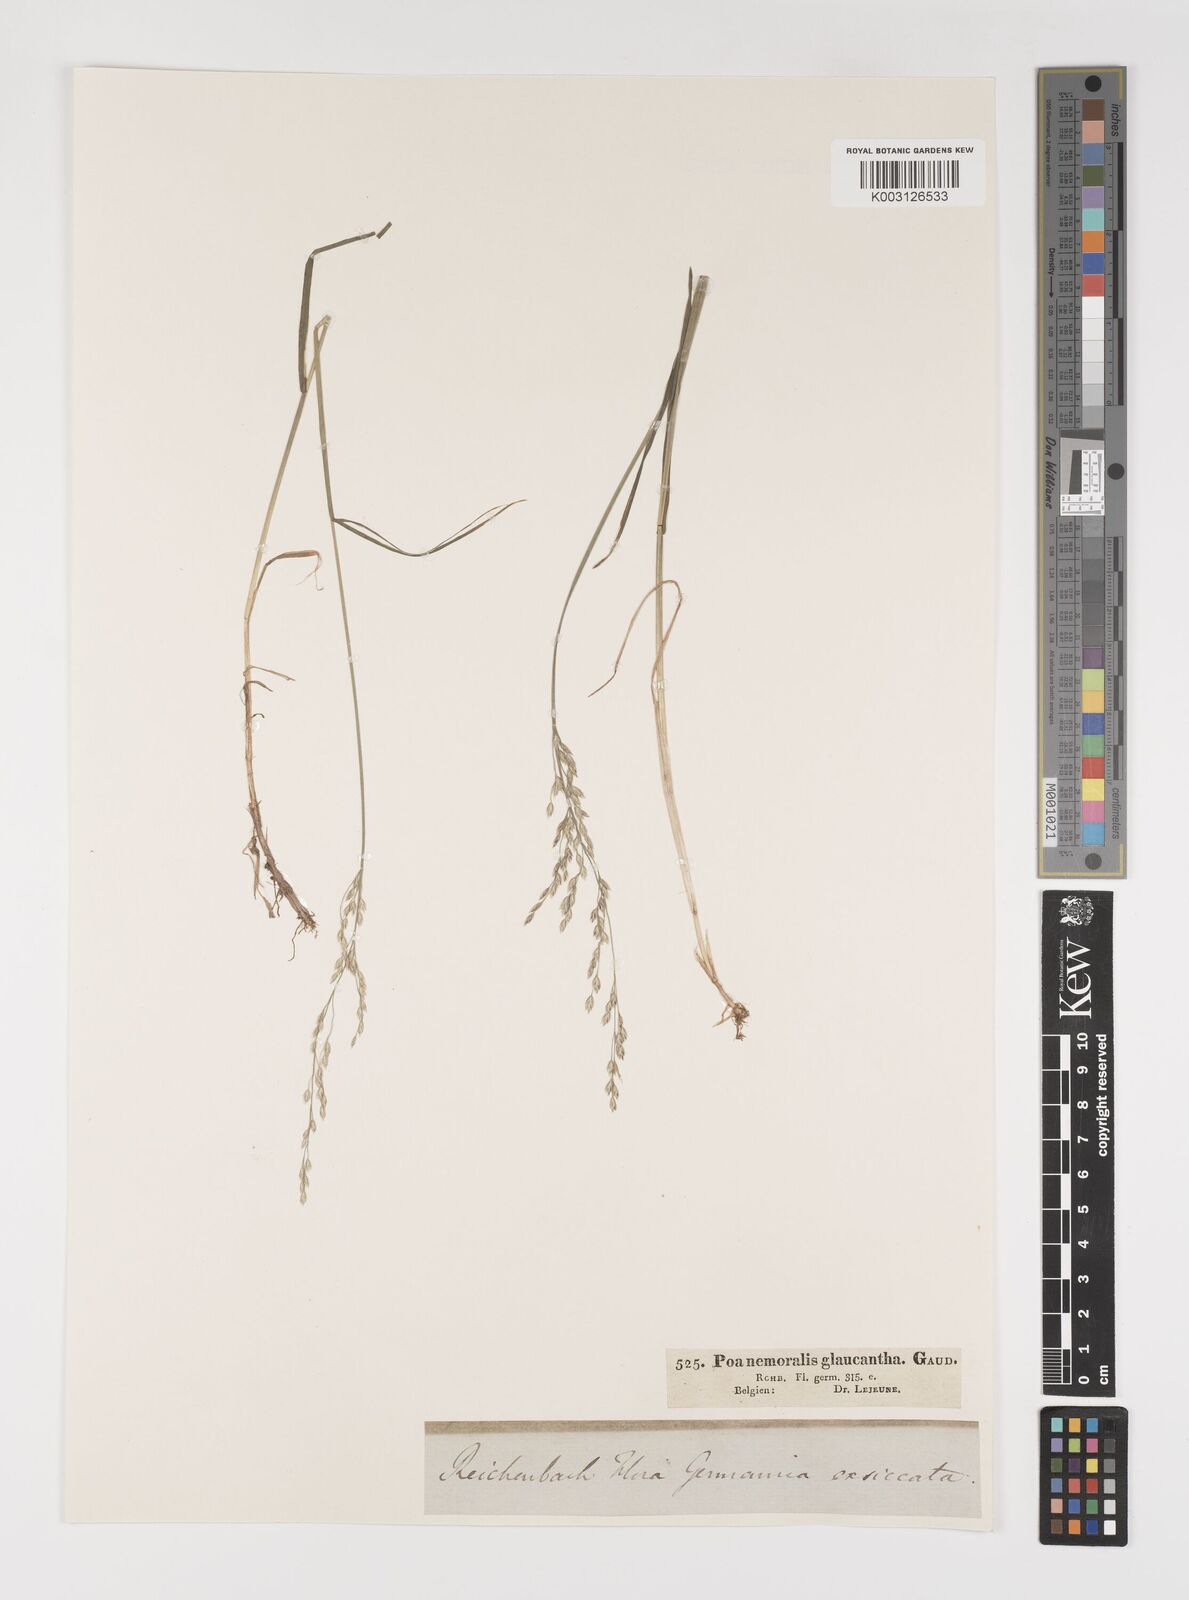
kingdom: Plantae
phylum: Tracheophyta
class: Liliopsida
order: Poales
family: Poaceae
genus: Poa
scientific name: Poa nemoralis
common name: Wood bluegrass
